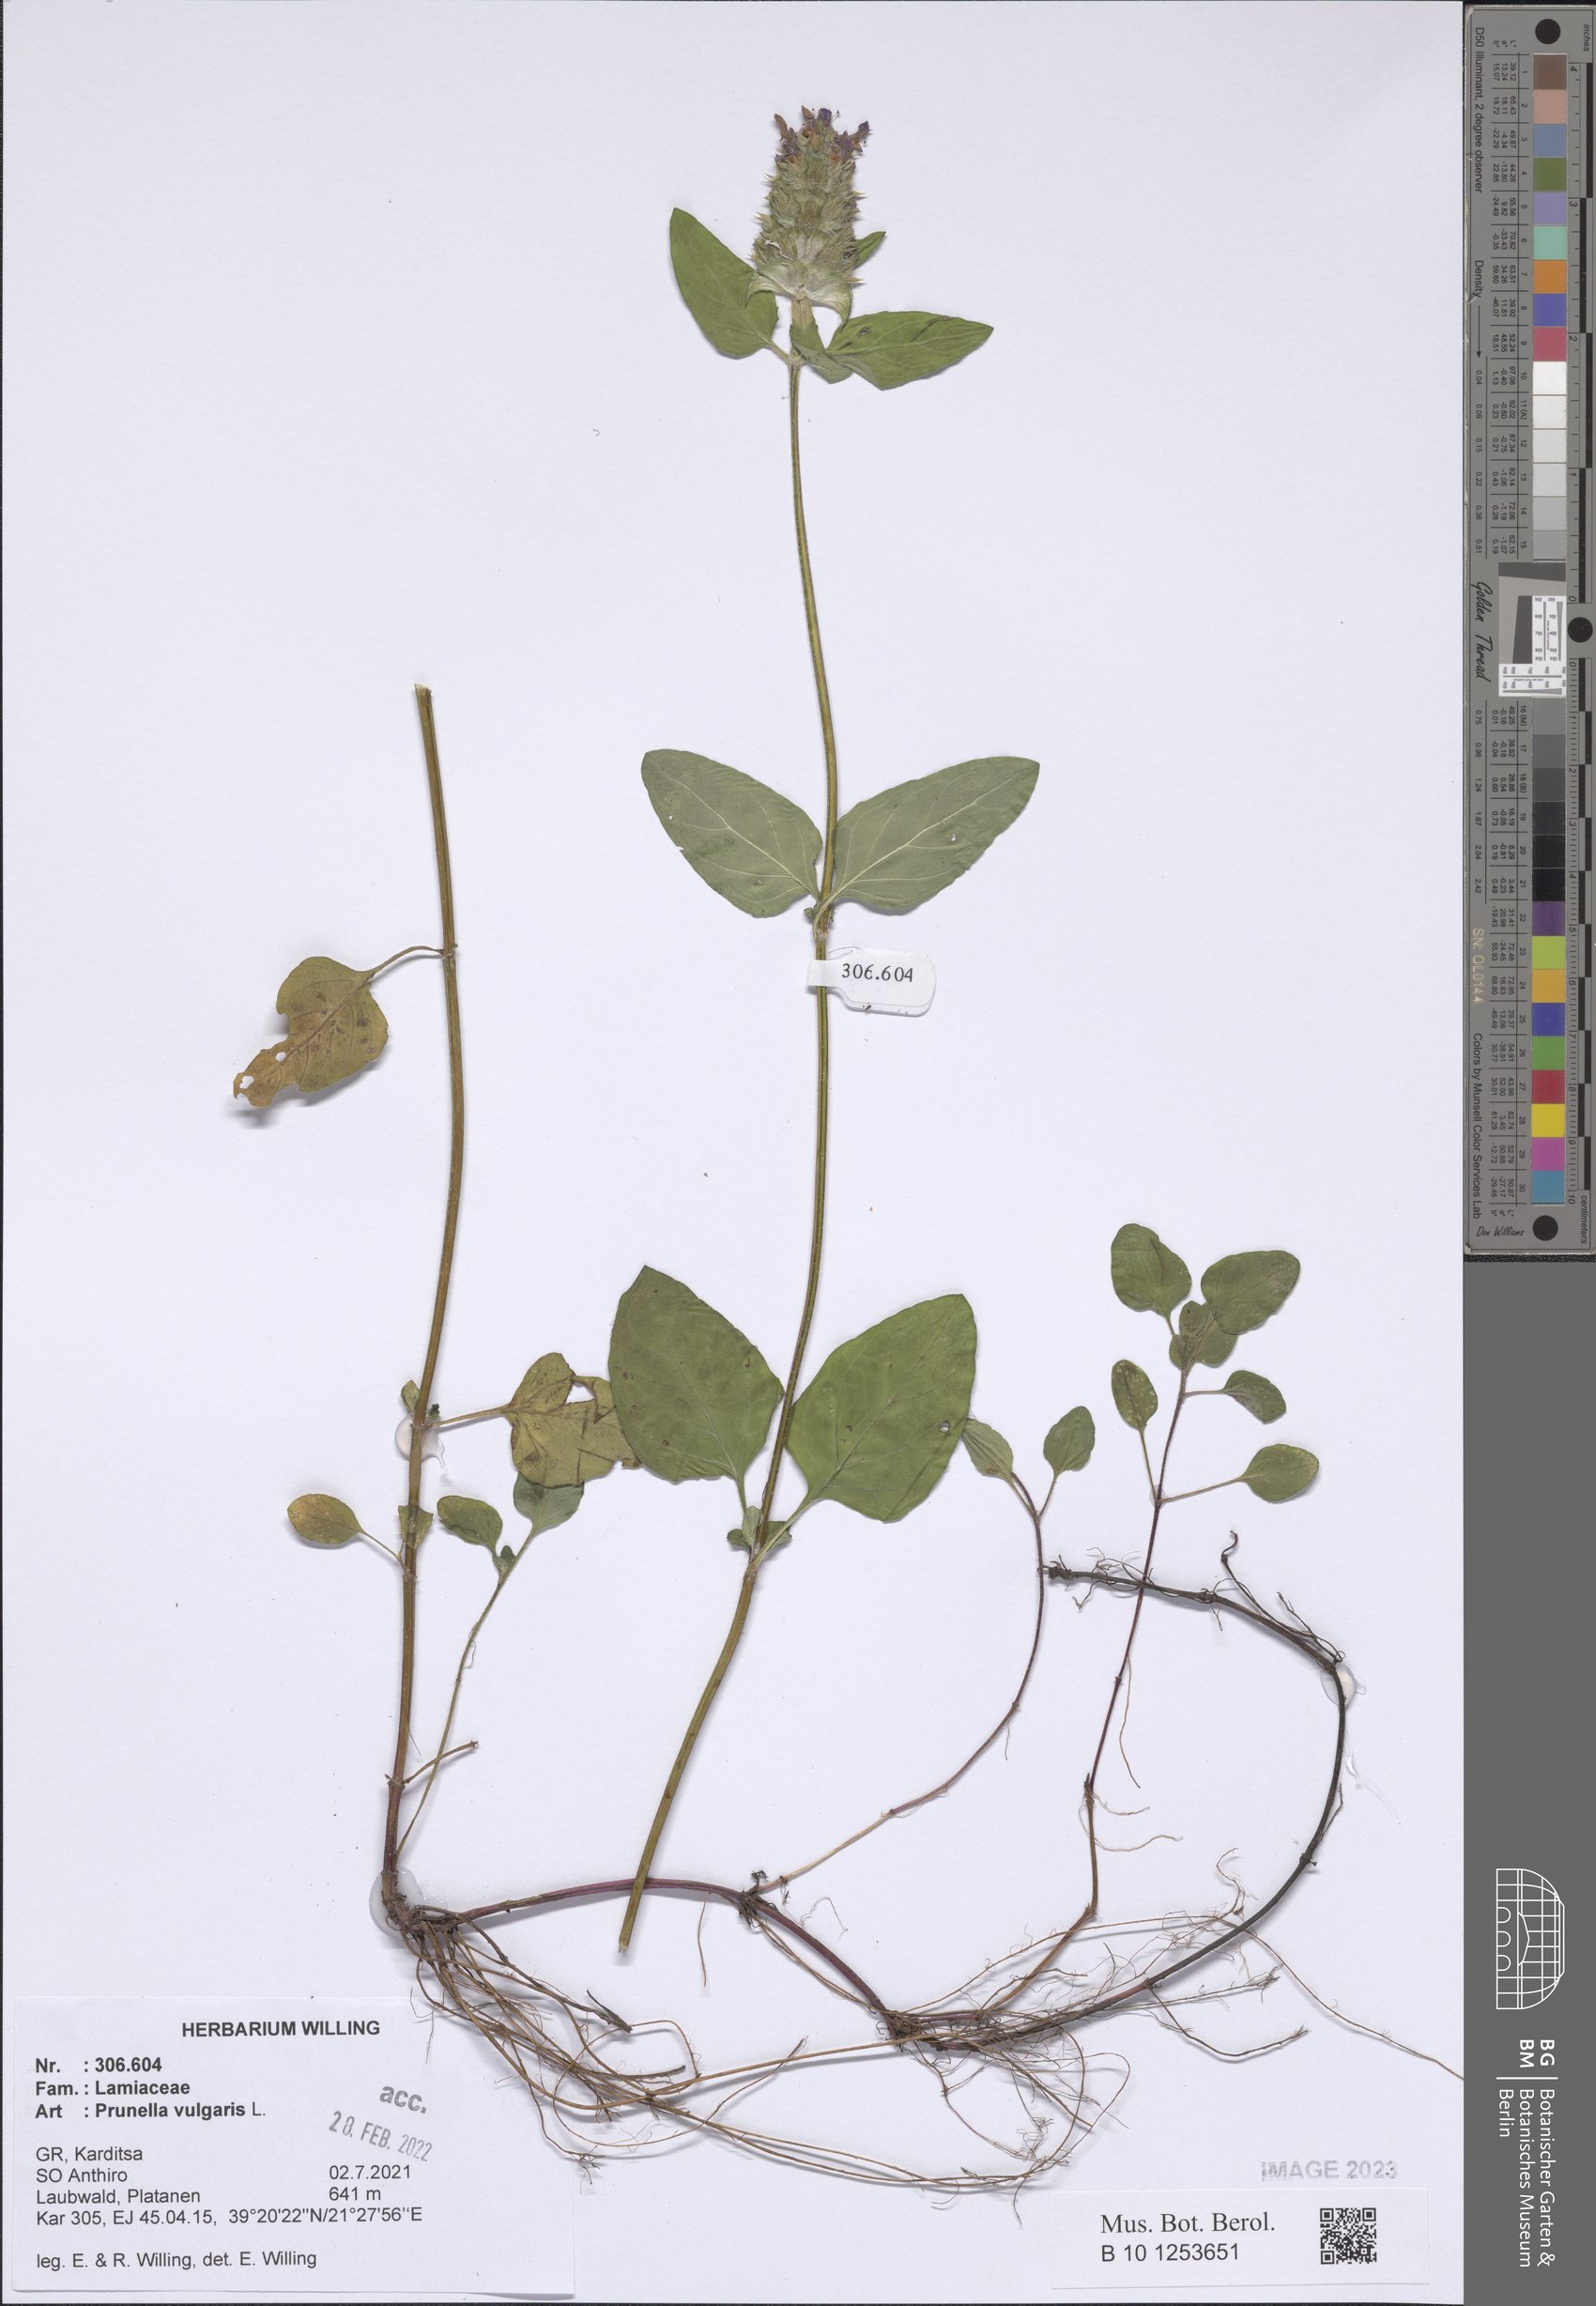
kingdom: Plantae
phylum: Tracheophyta
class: Magnoliopsida
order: Lamiales
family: Lamiaceae
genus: Prunella
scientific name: Prunella vulgaris
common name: Heal-all
